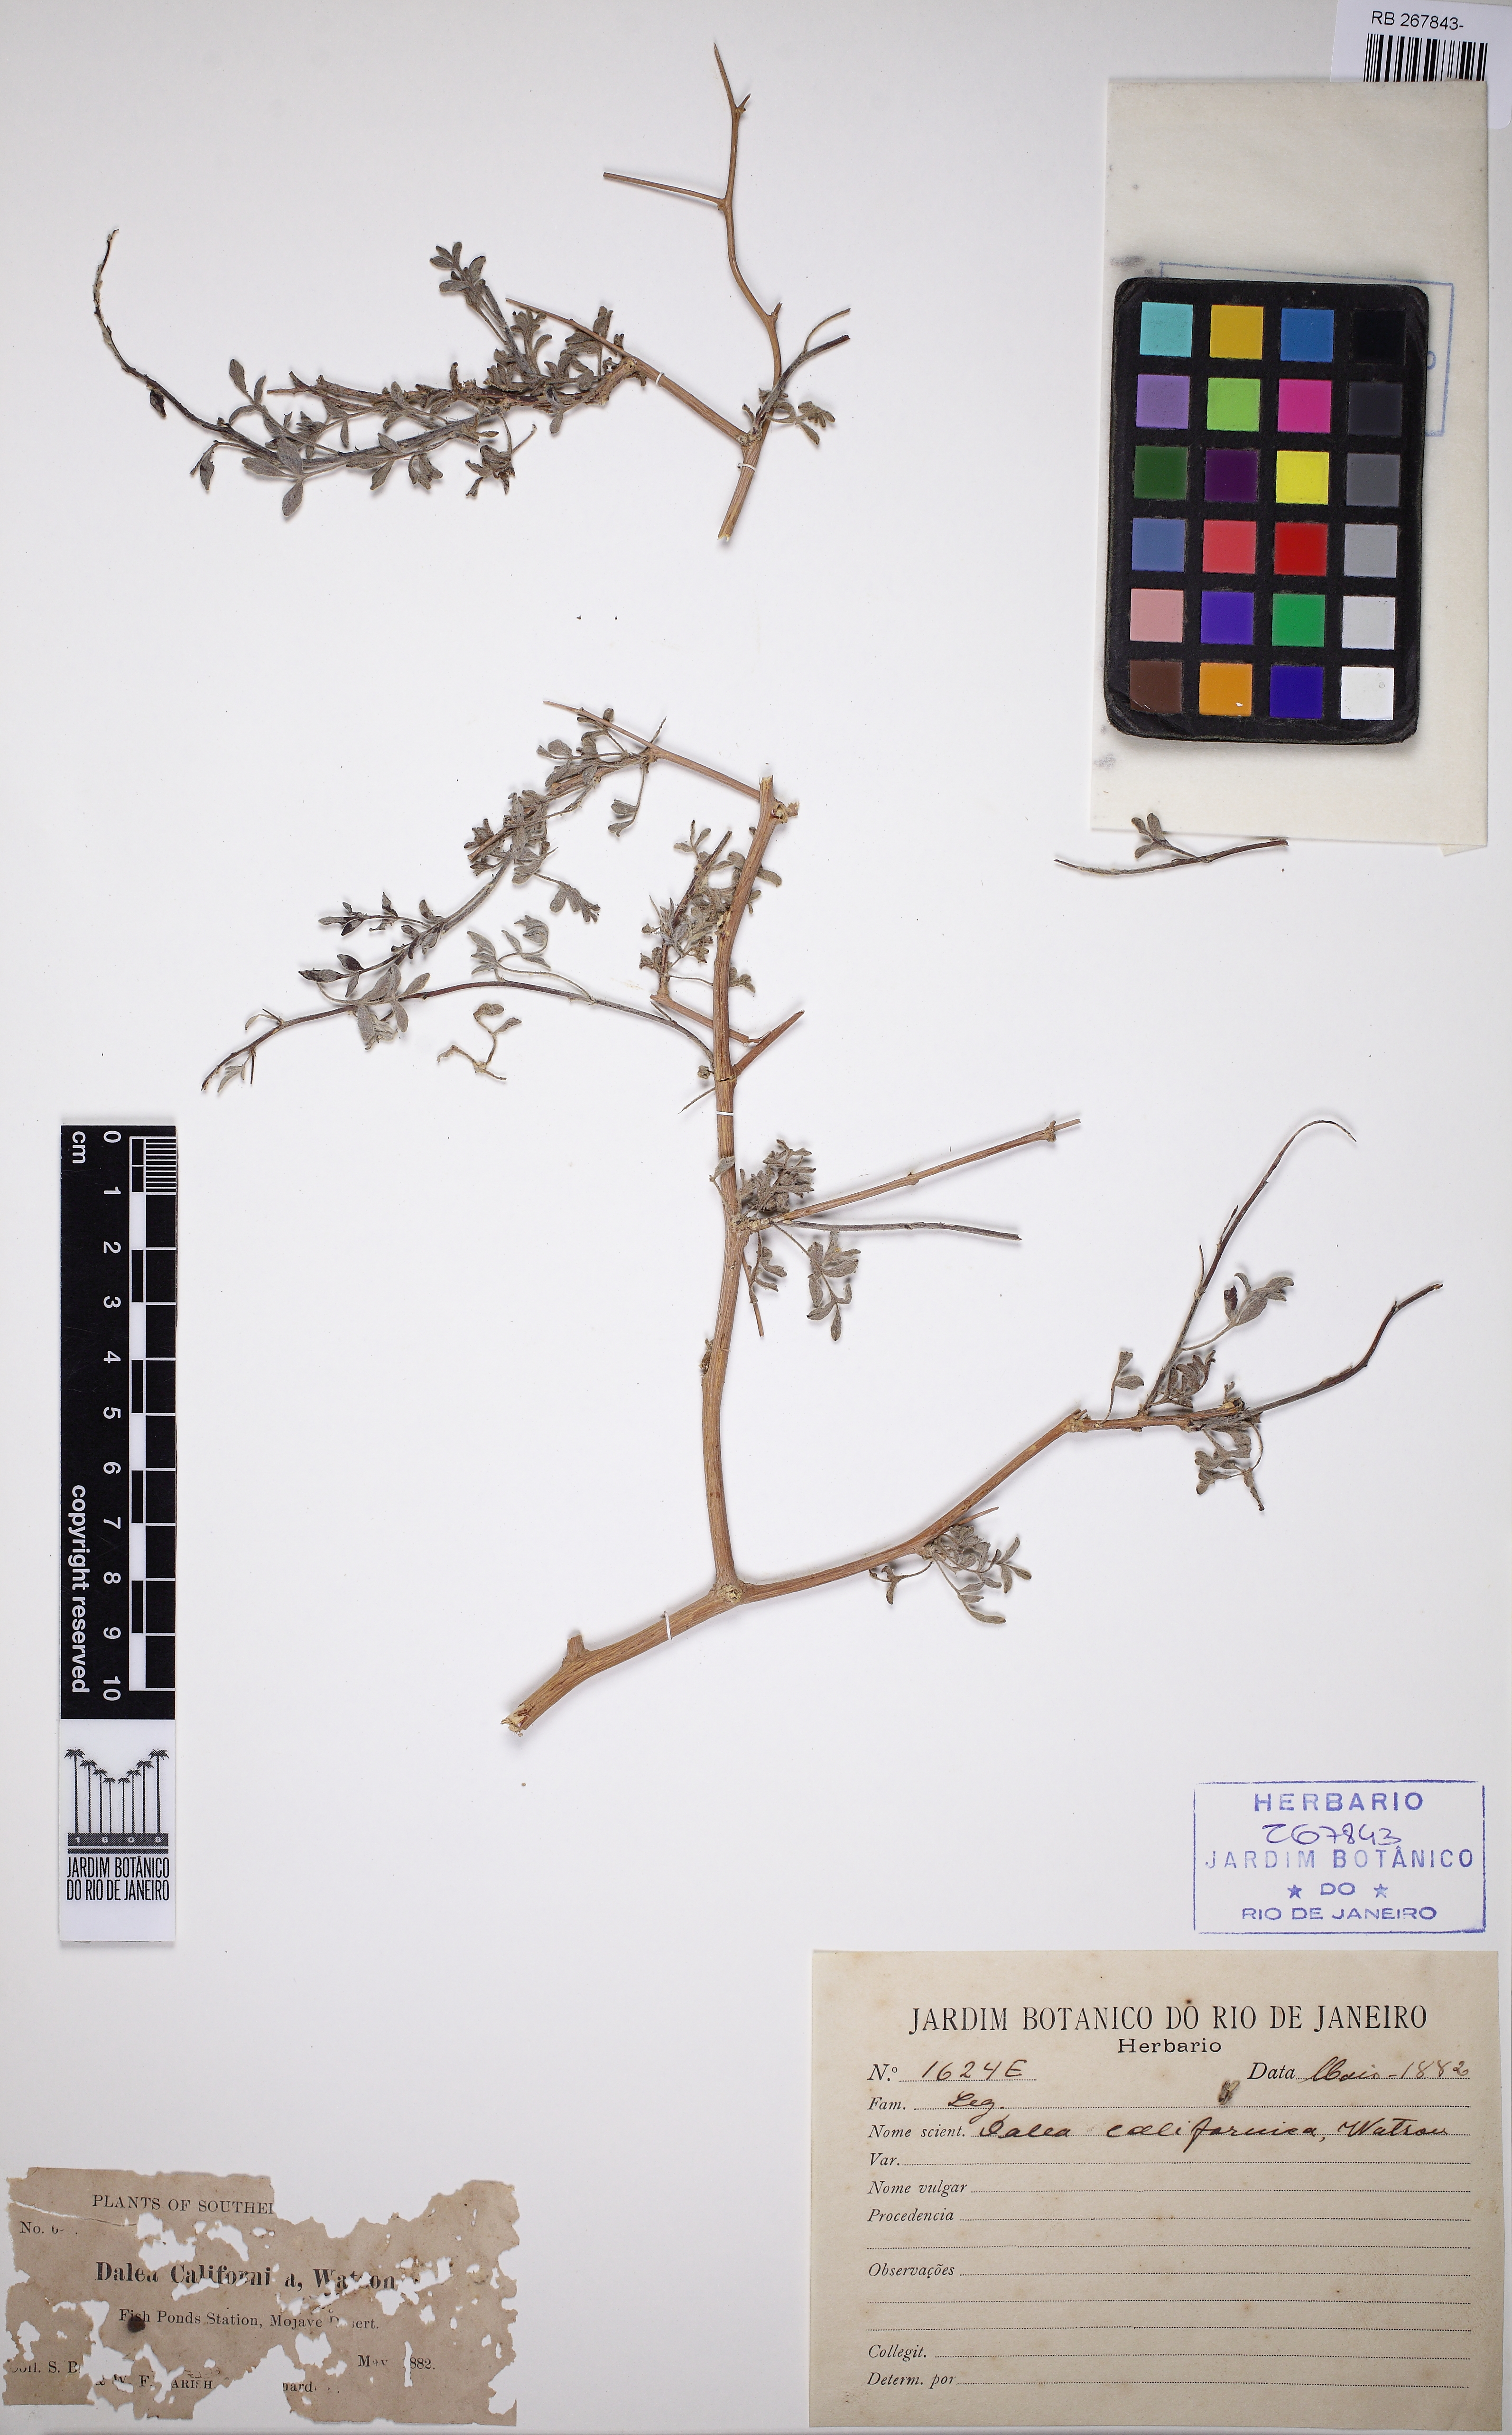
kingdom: Plantae
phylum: Tracheophyta
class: Magnoliopsida
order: Fabales
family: Fabaceae
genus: Psorothamnus
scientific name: Psorothamnus arborescens
